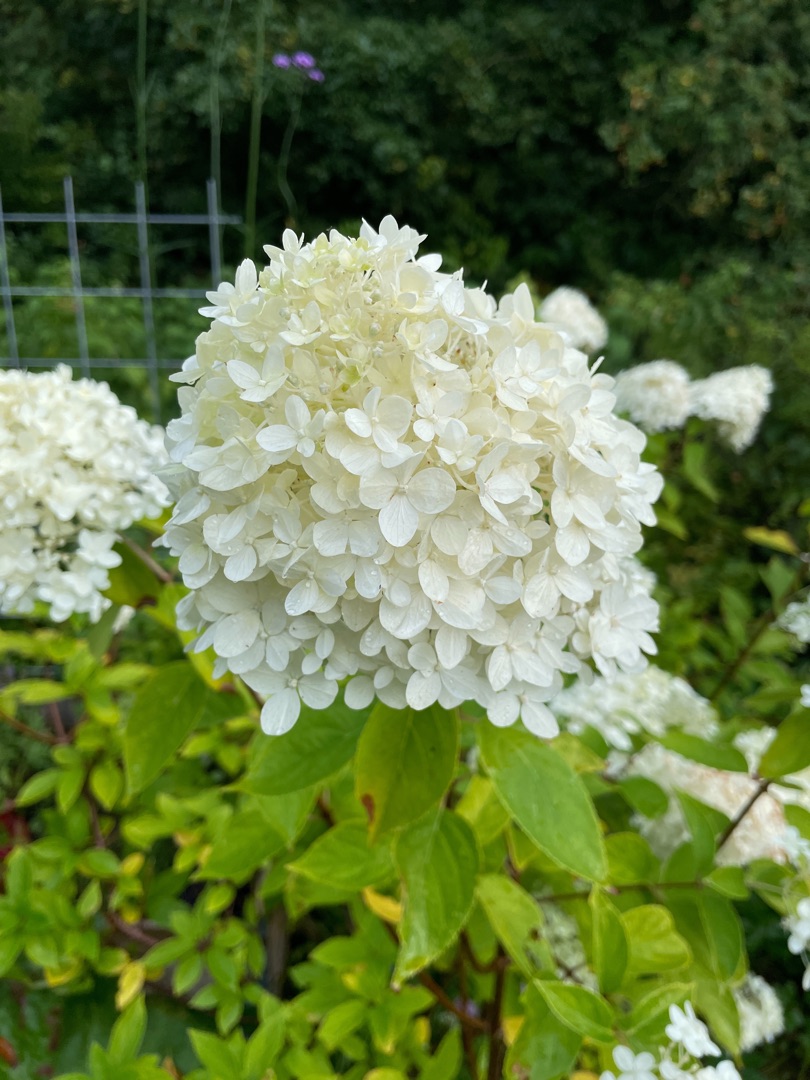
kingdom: Plantae
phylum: Tracheophyta
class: Magnoliopsida
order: Cornales
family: Hydrangeaceae
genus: Hydrangea
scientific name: Hydrangea paniculata
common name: Have-hortensie
